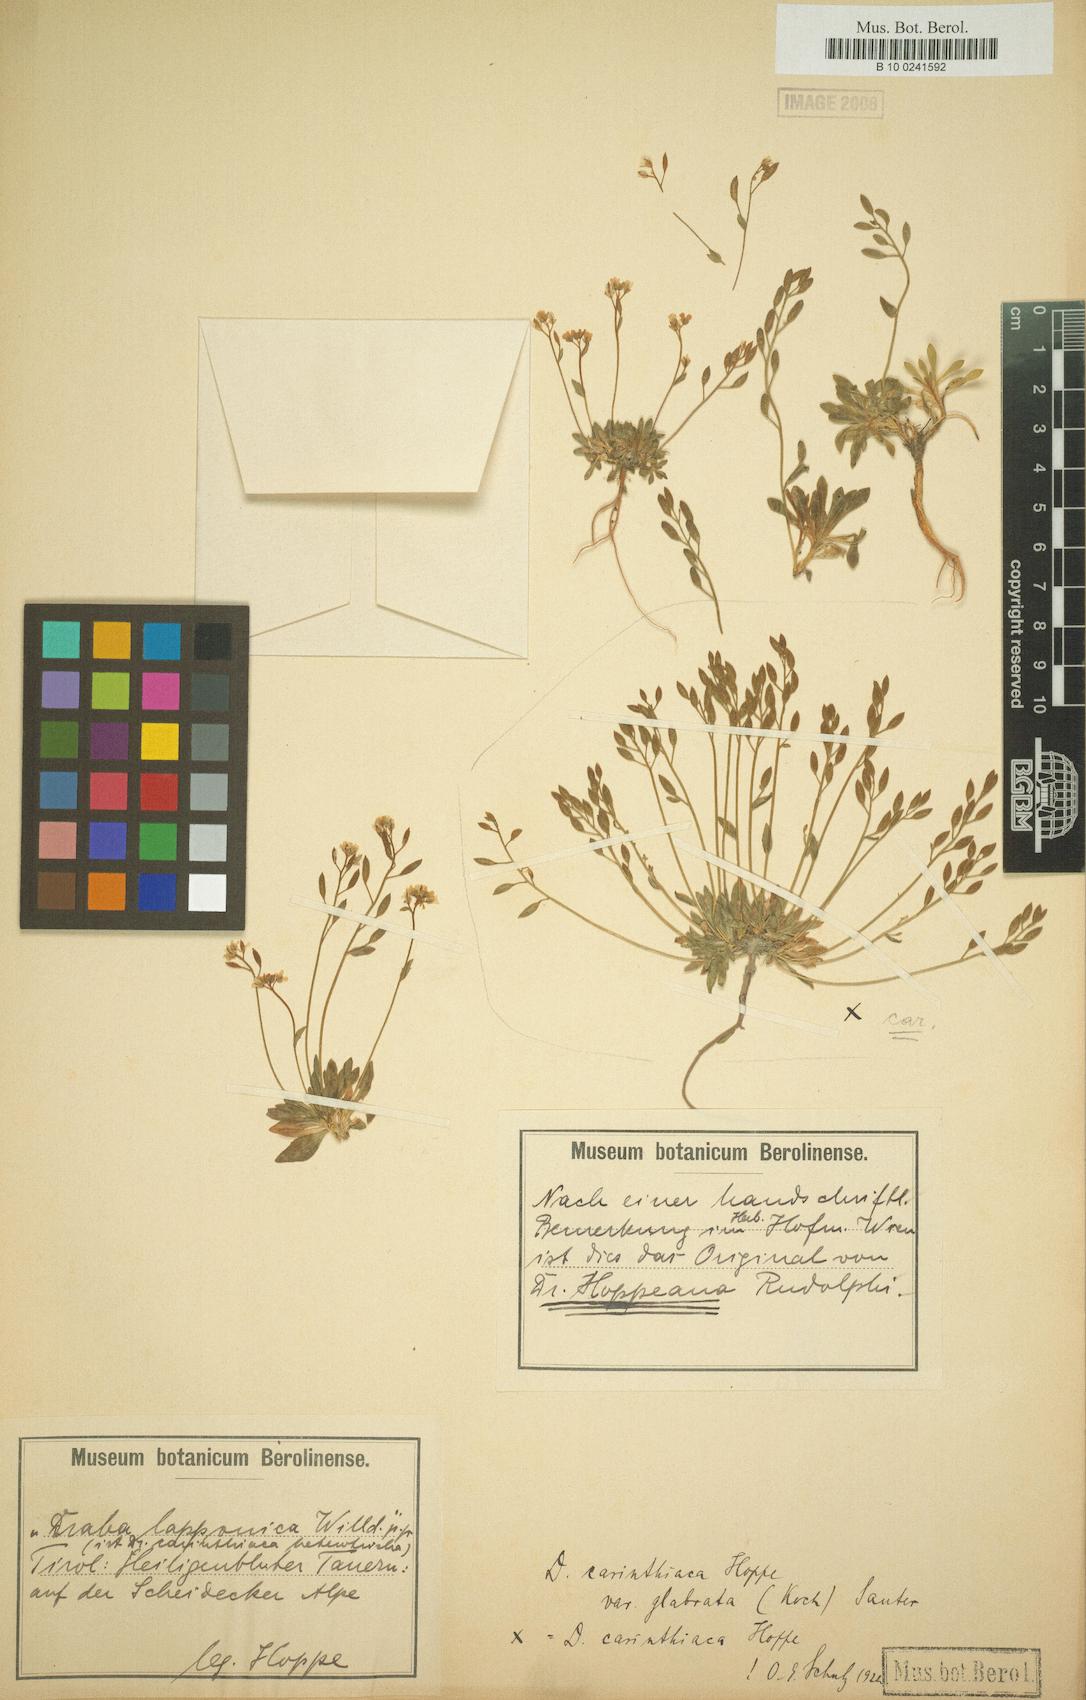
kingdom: Plantae
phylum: Tracheophyta
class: Magnoliopsida
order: Brassicales
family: Brassicaceae
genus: Draba
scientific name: Draba siliquosa
